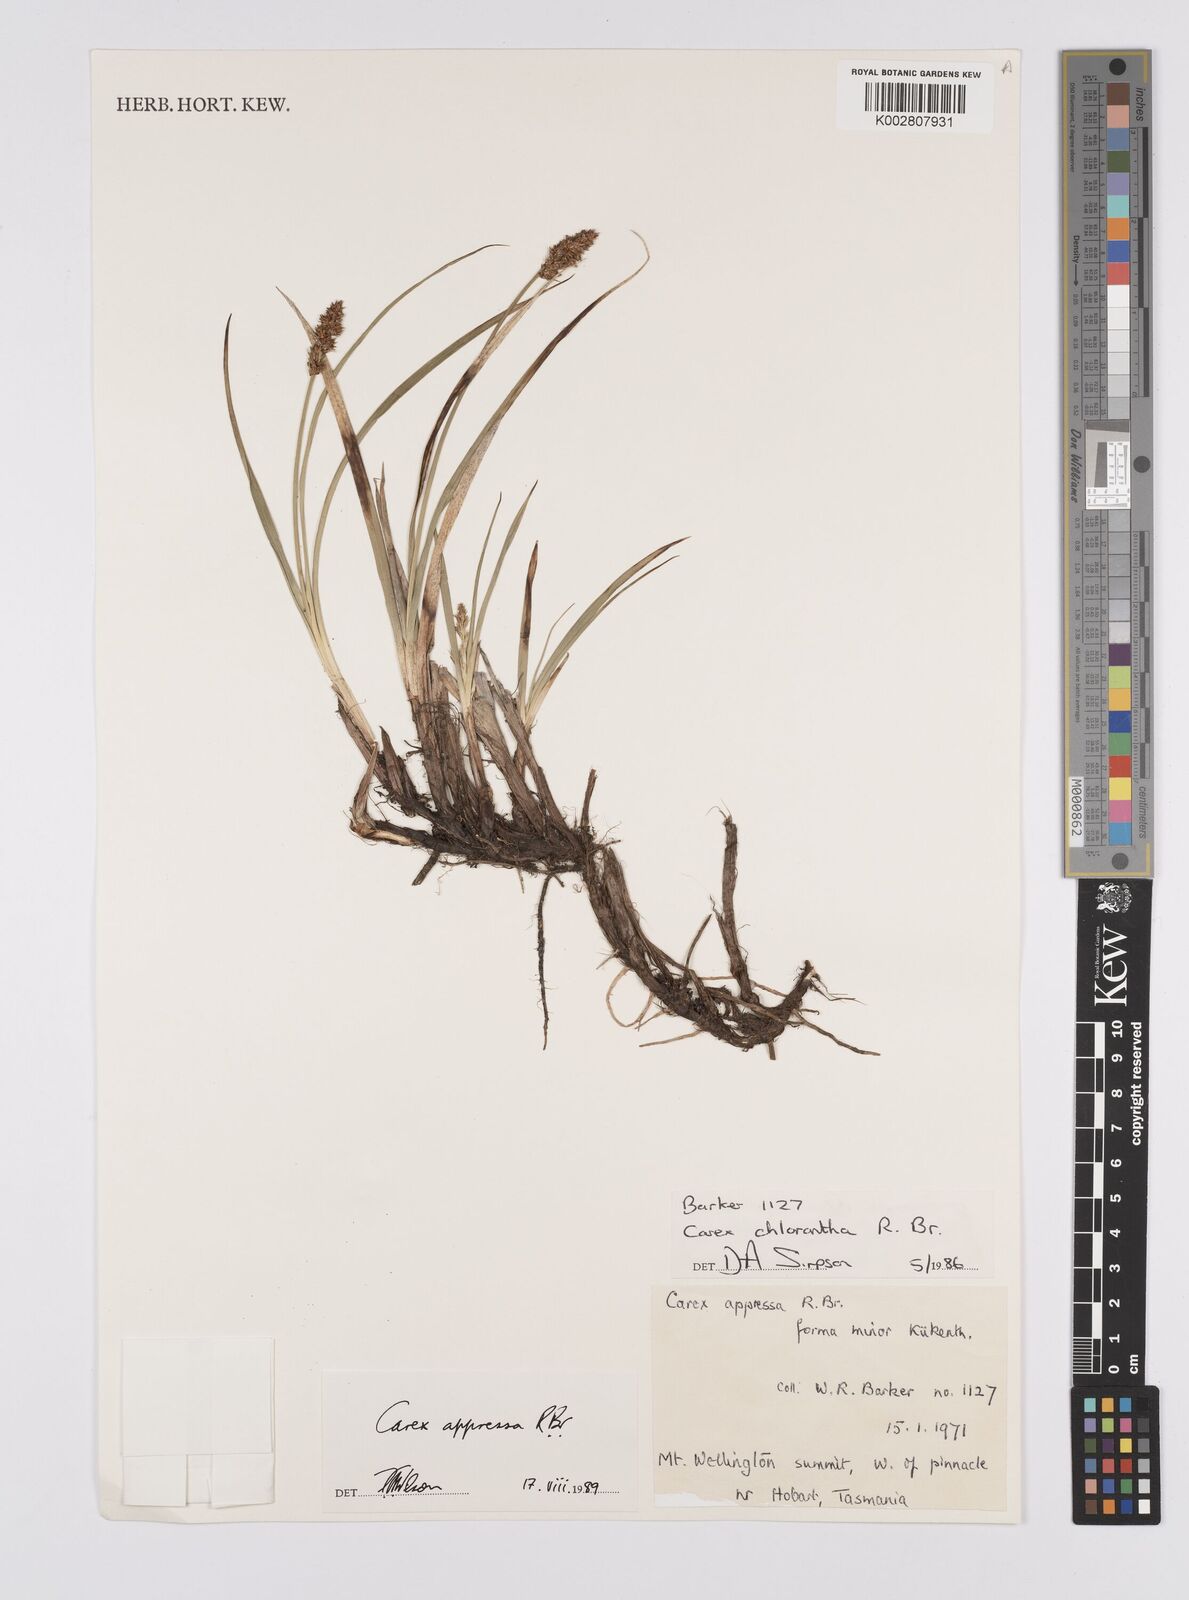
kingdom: Plantae
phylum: Tracheophyta
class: Liliopsida
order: Poales
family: Cyperaceae
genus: Carex
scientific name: Carex appressa
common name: Tussock sedge
